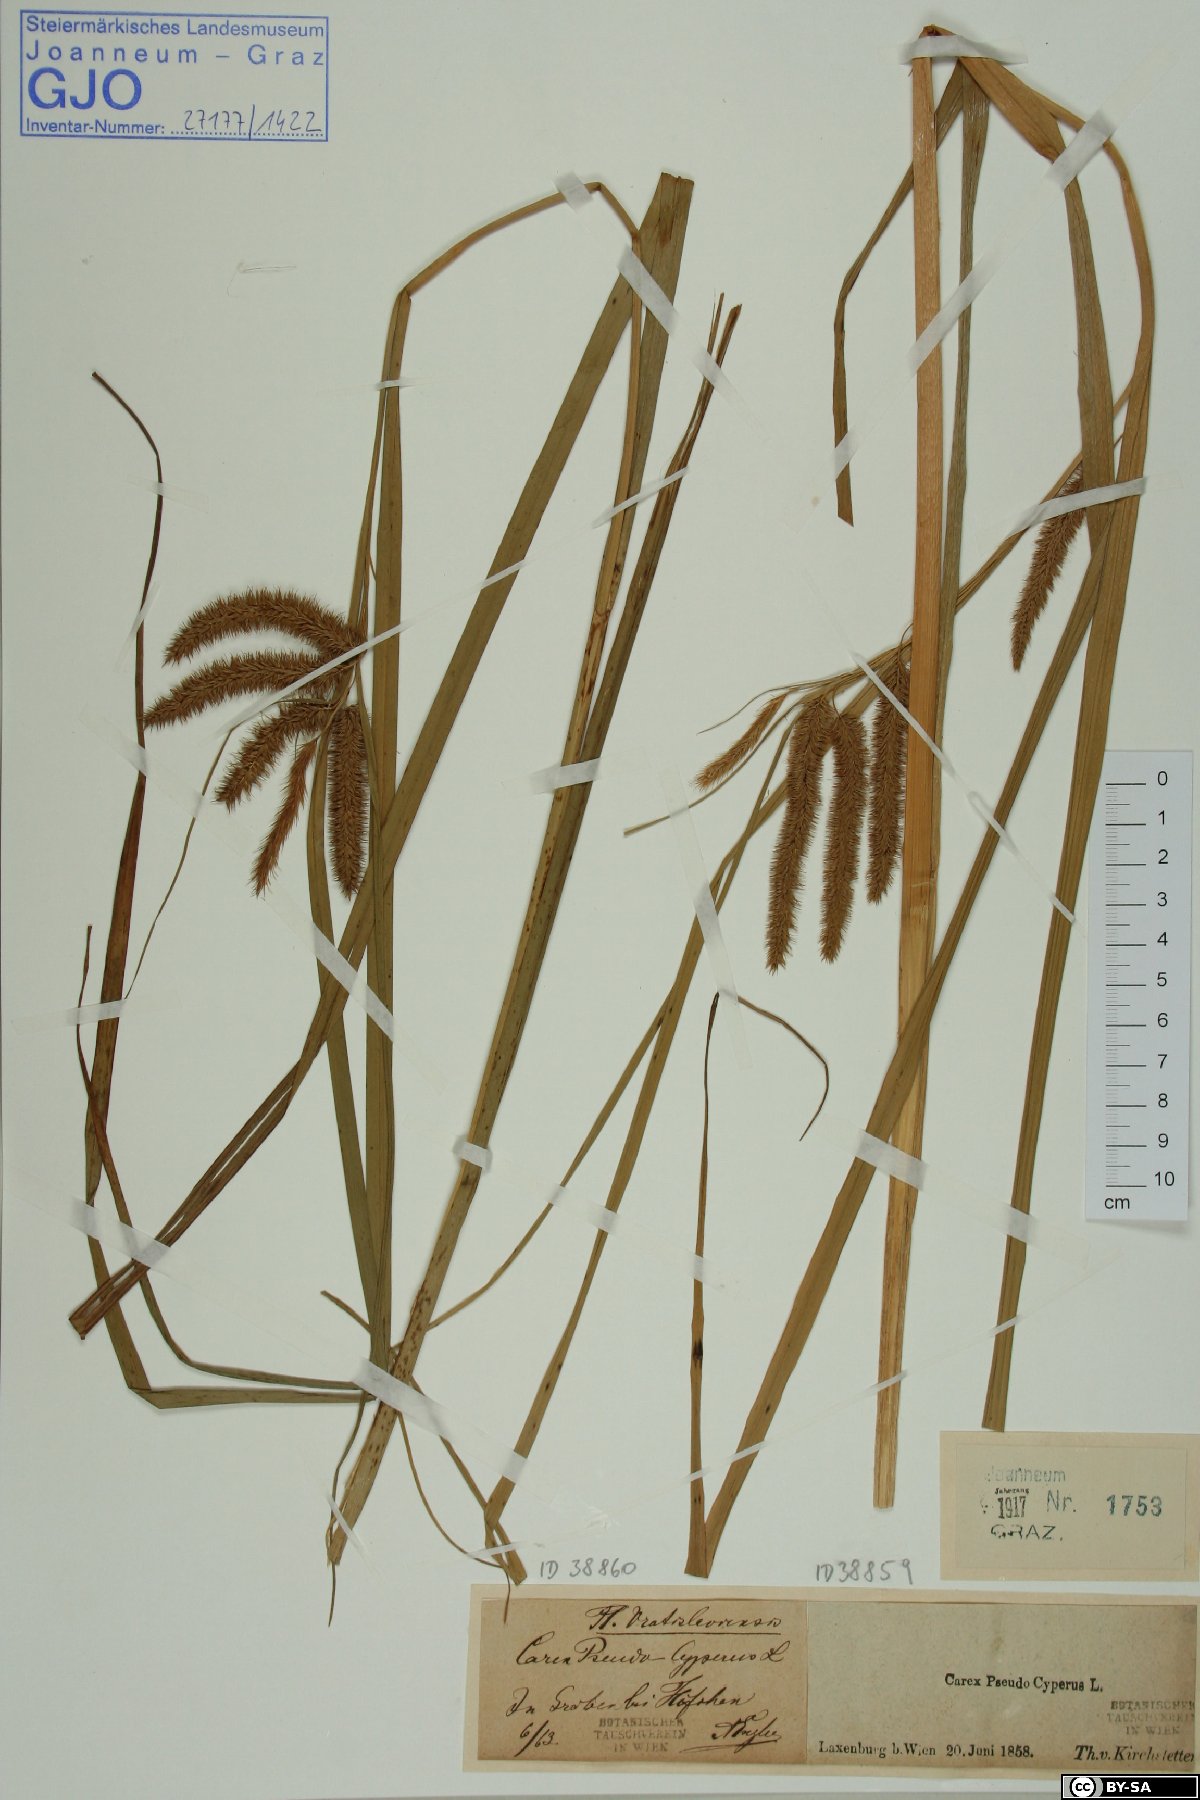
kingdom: Plantae
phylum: Tracheophyta
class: Liliopsida
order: Poales
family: Cyperaceae
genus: Carex
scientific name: Carex pseudocyperus
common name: Cyperus sedge
